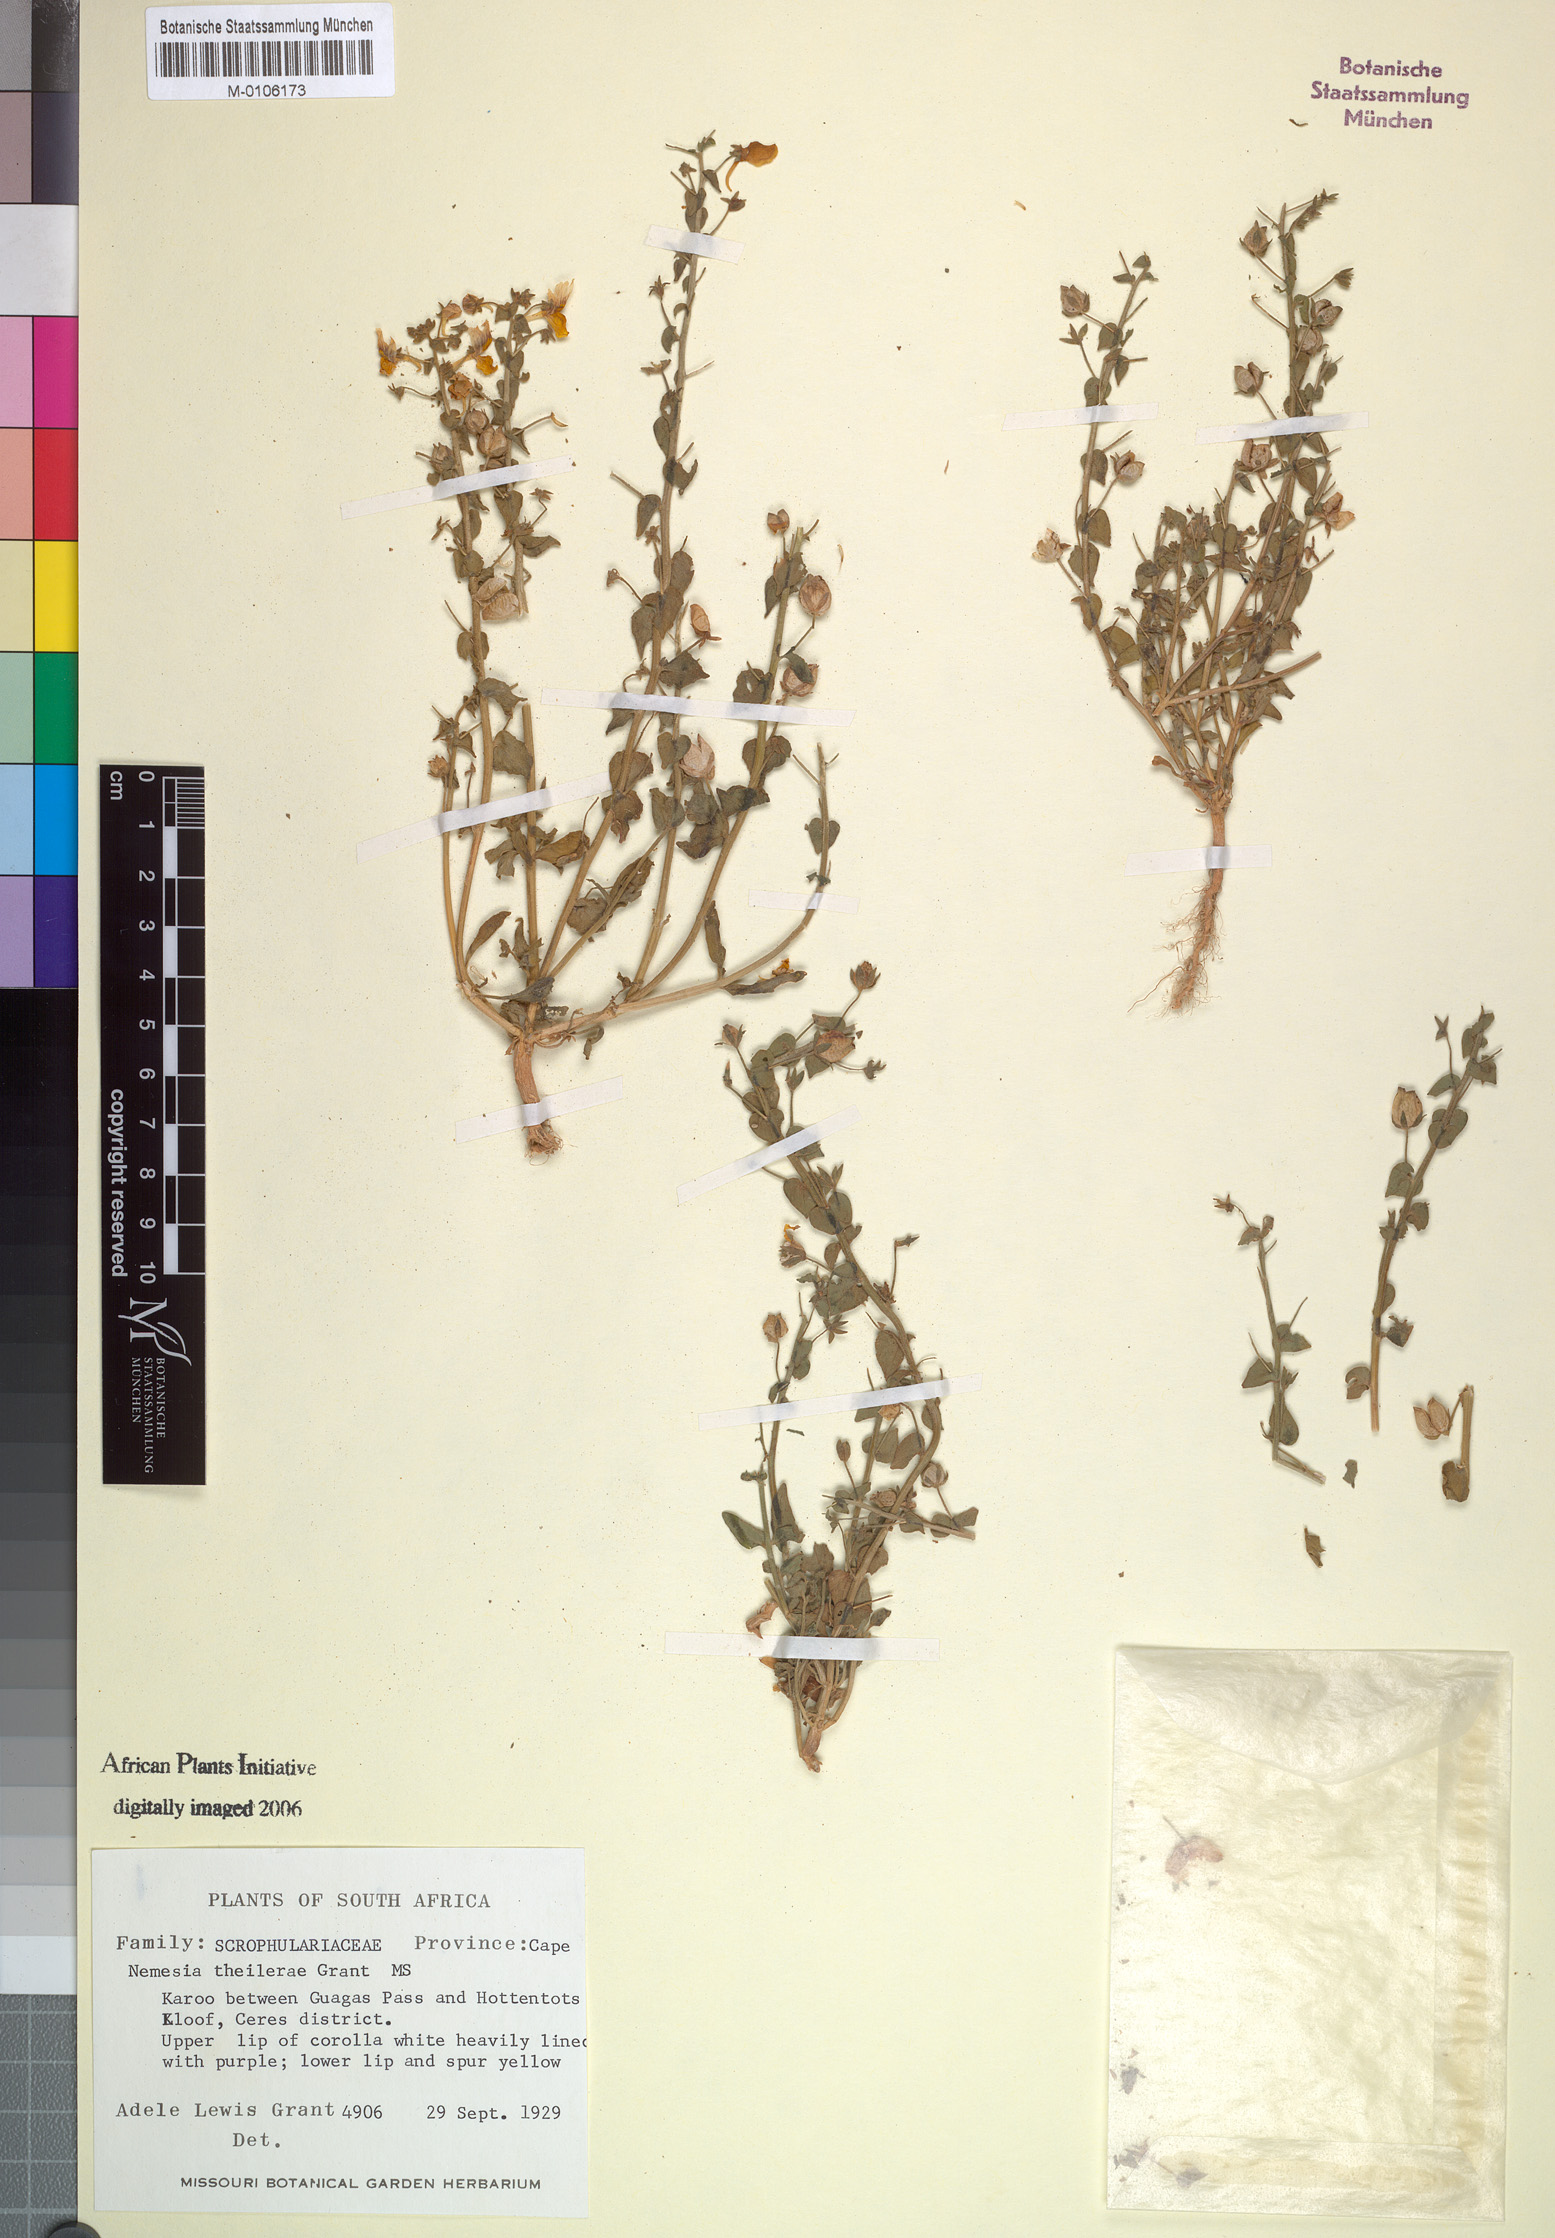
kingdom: Plantae
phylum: Tracheophyta
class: Magnoliopsida
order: Lamiales
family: Scrophulariaceae
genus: Nemesia
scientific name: Nemesia
